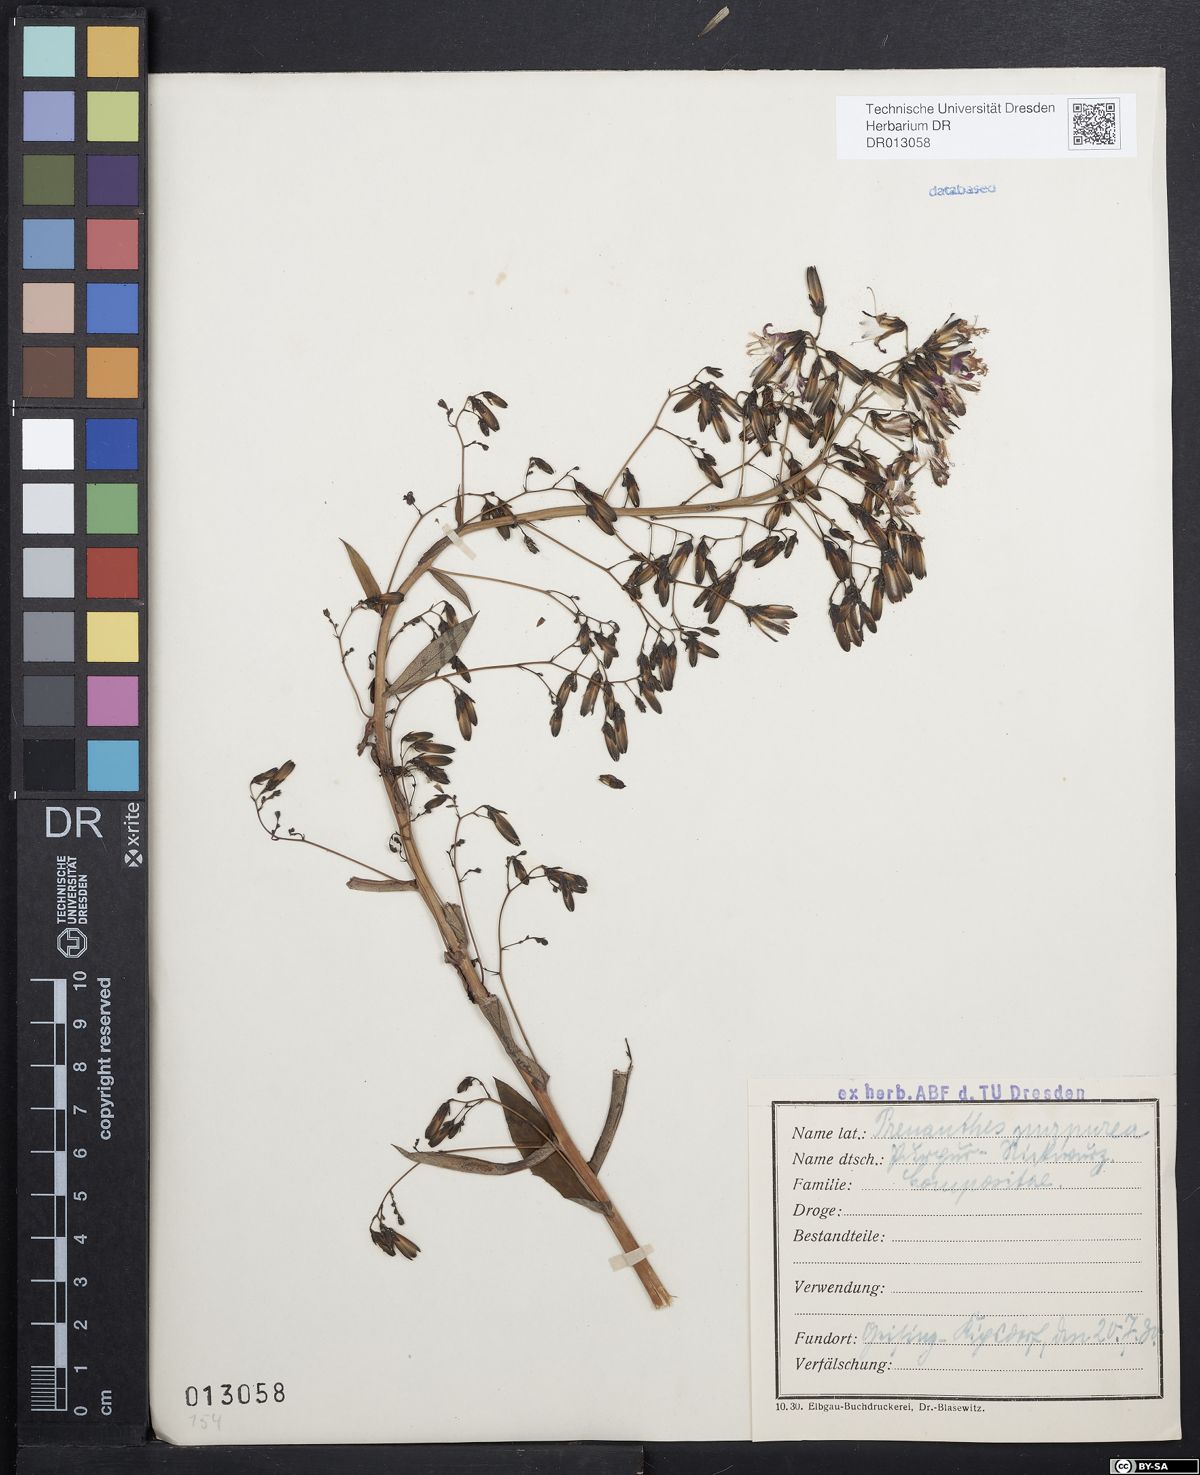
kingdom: Plantae
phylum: Tracheophyta
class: Magnoliopsida
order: Asterales
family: Asteraceae
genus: Prenanthes
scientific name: Prenanthes purpurea
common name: Purple lettuce
